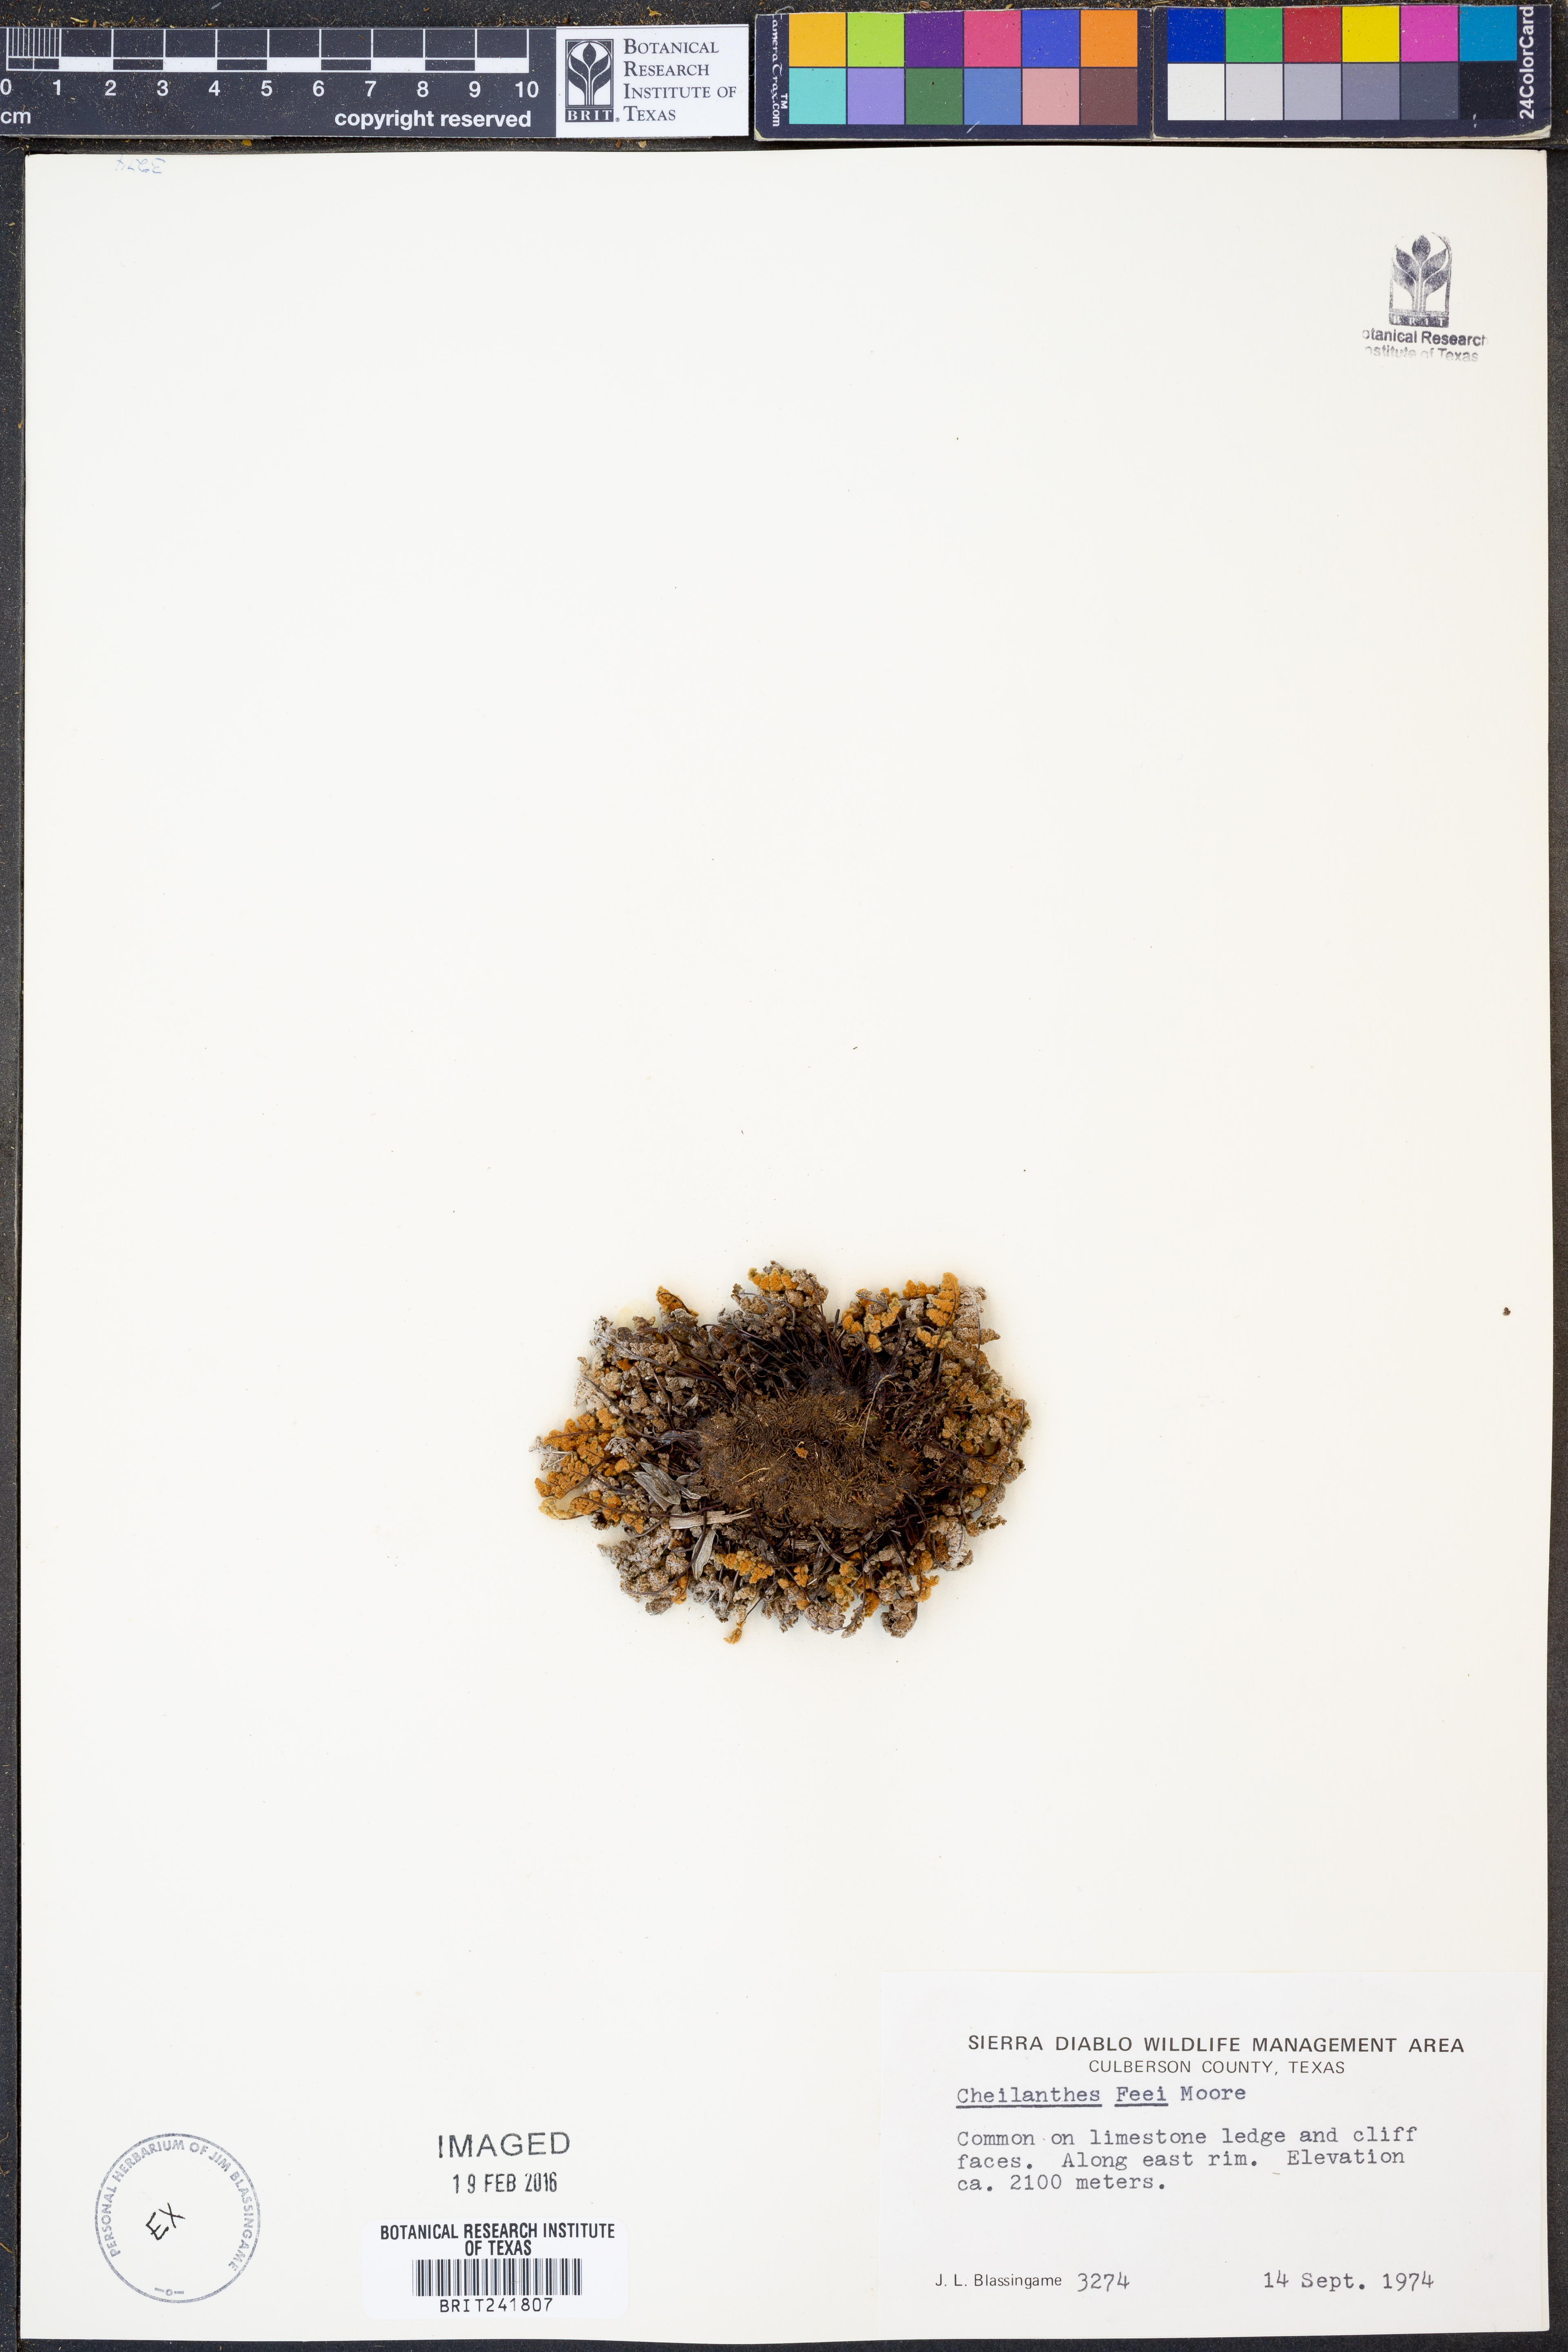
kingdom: Plantae
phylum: Tracheophyta
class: Polypodiopsida
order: Polypodiales
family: Pteridaceae
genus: Myriopteris
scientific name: Myriopteris gracilis
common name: Fee's lip fern
